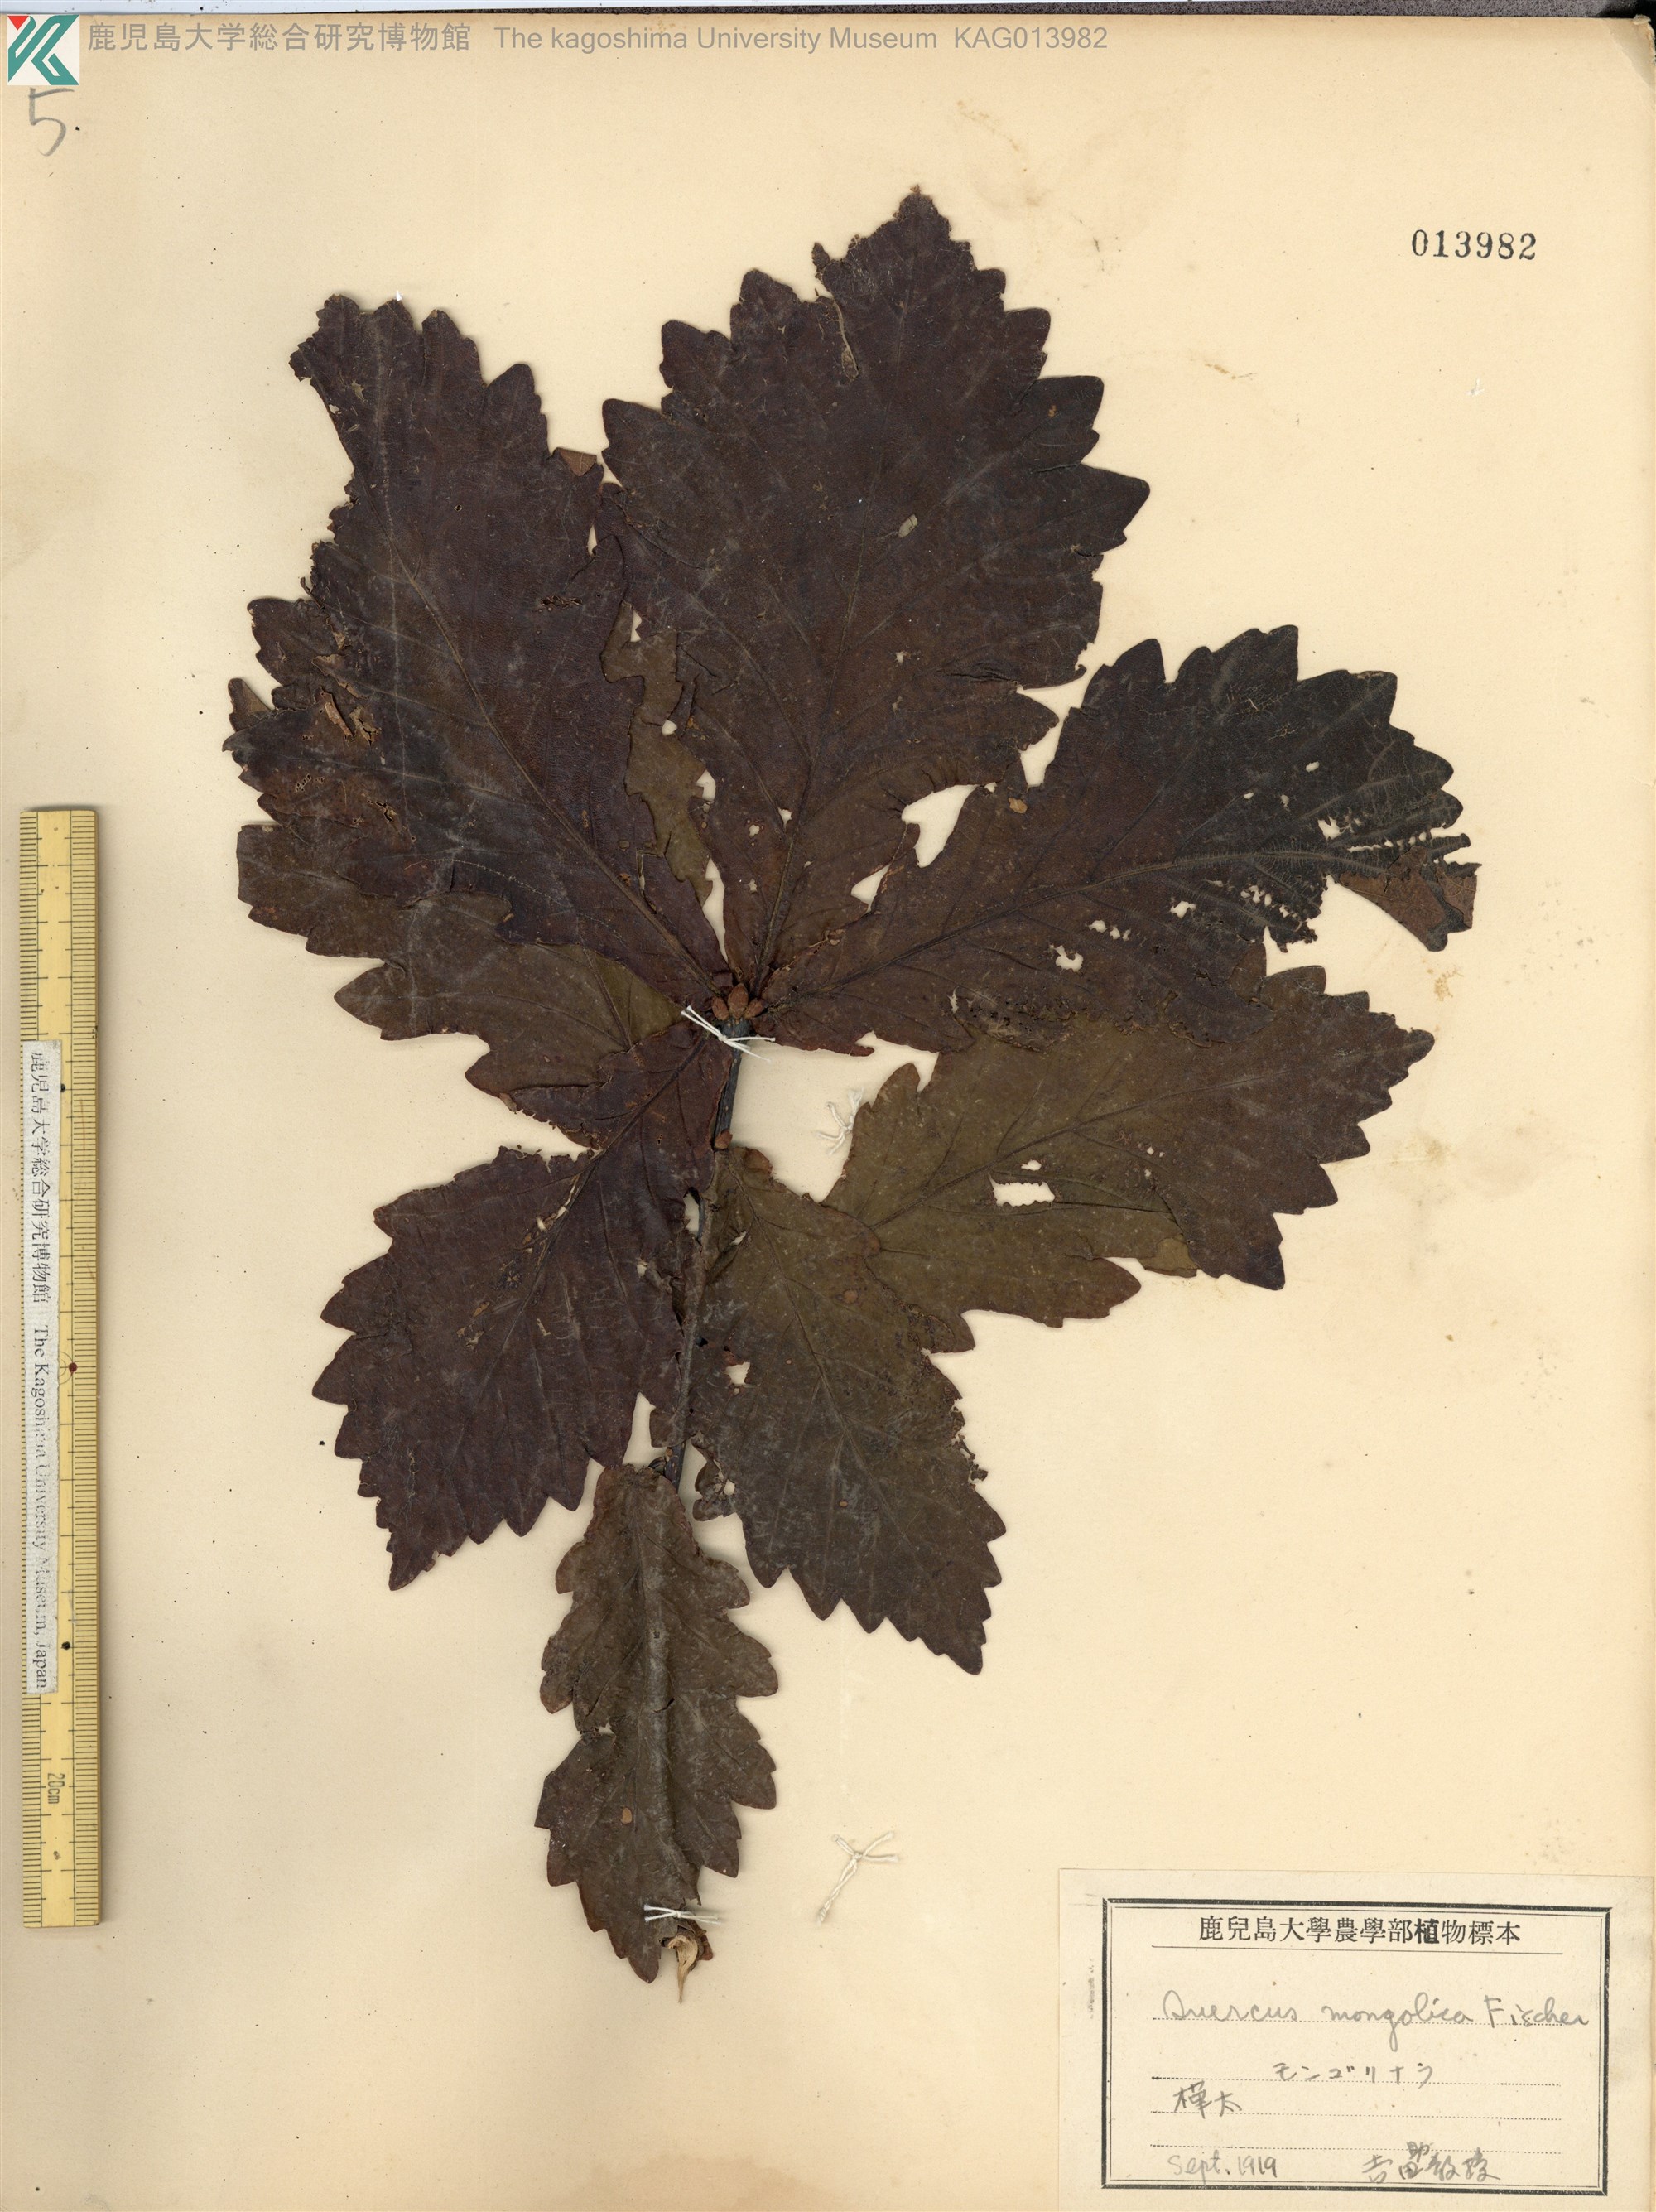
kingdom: Plantae
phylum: Tracheophyta
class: Magnoliopsida
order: Fagales
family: Fagaceae
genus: Quercus
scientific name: Quercus mongolica
